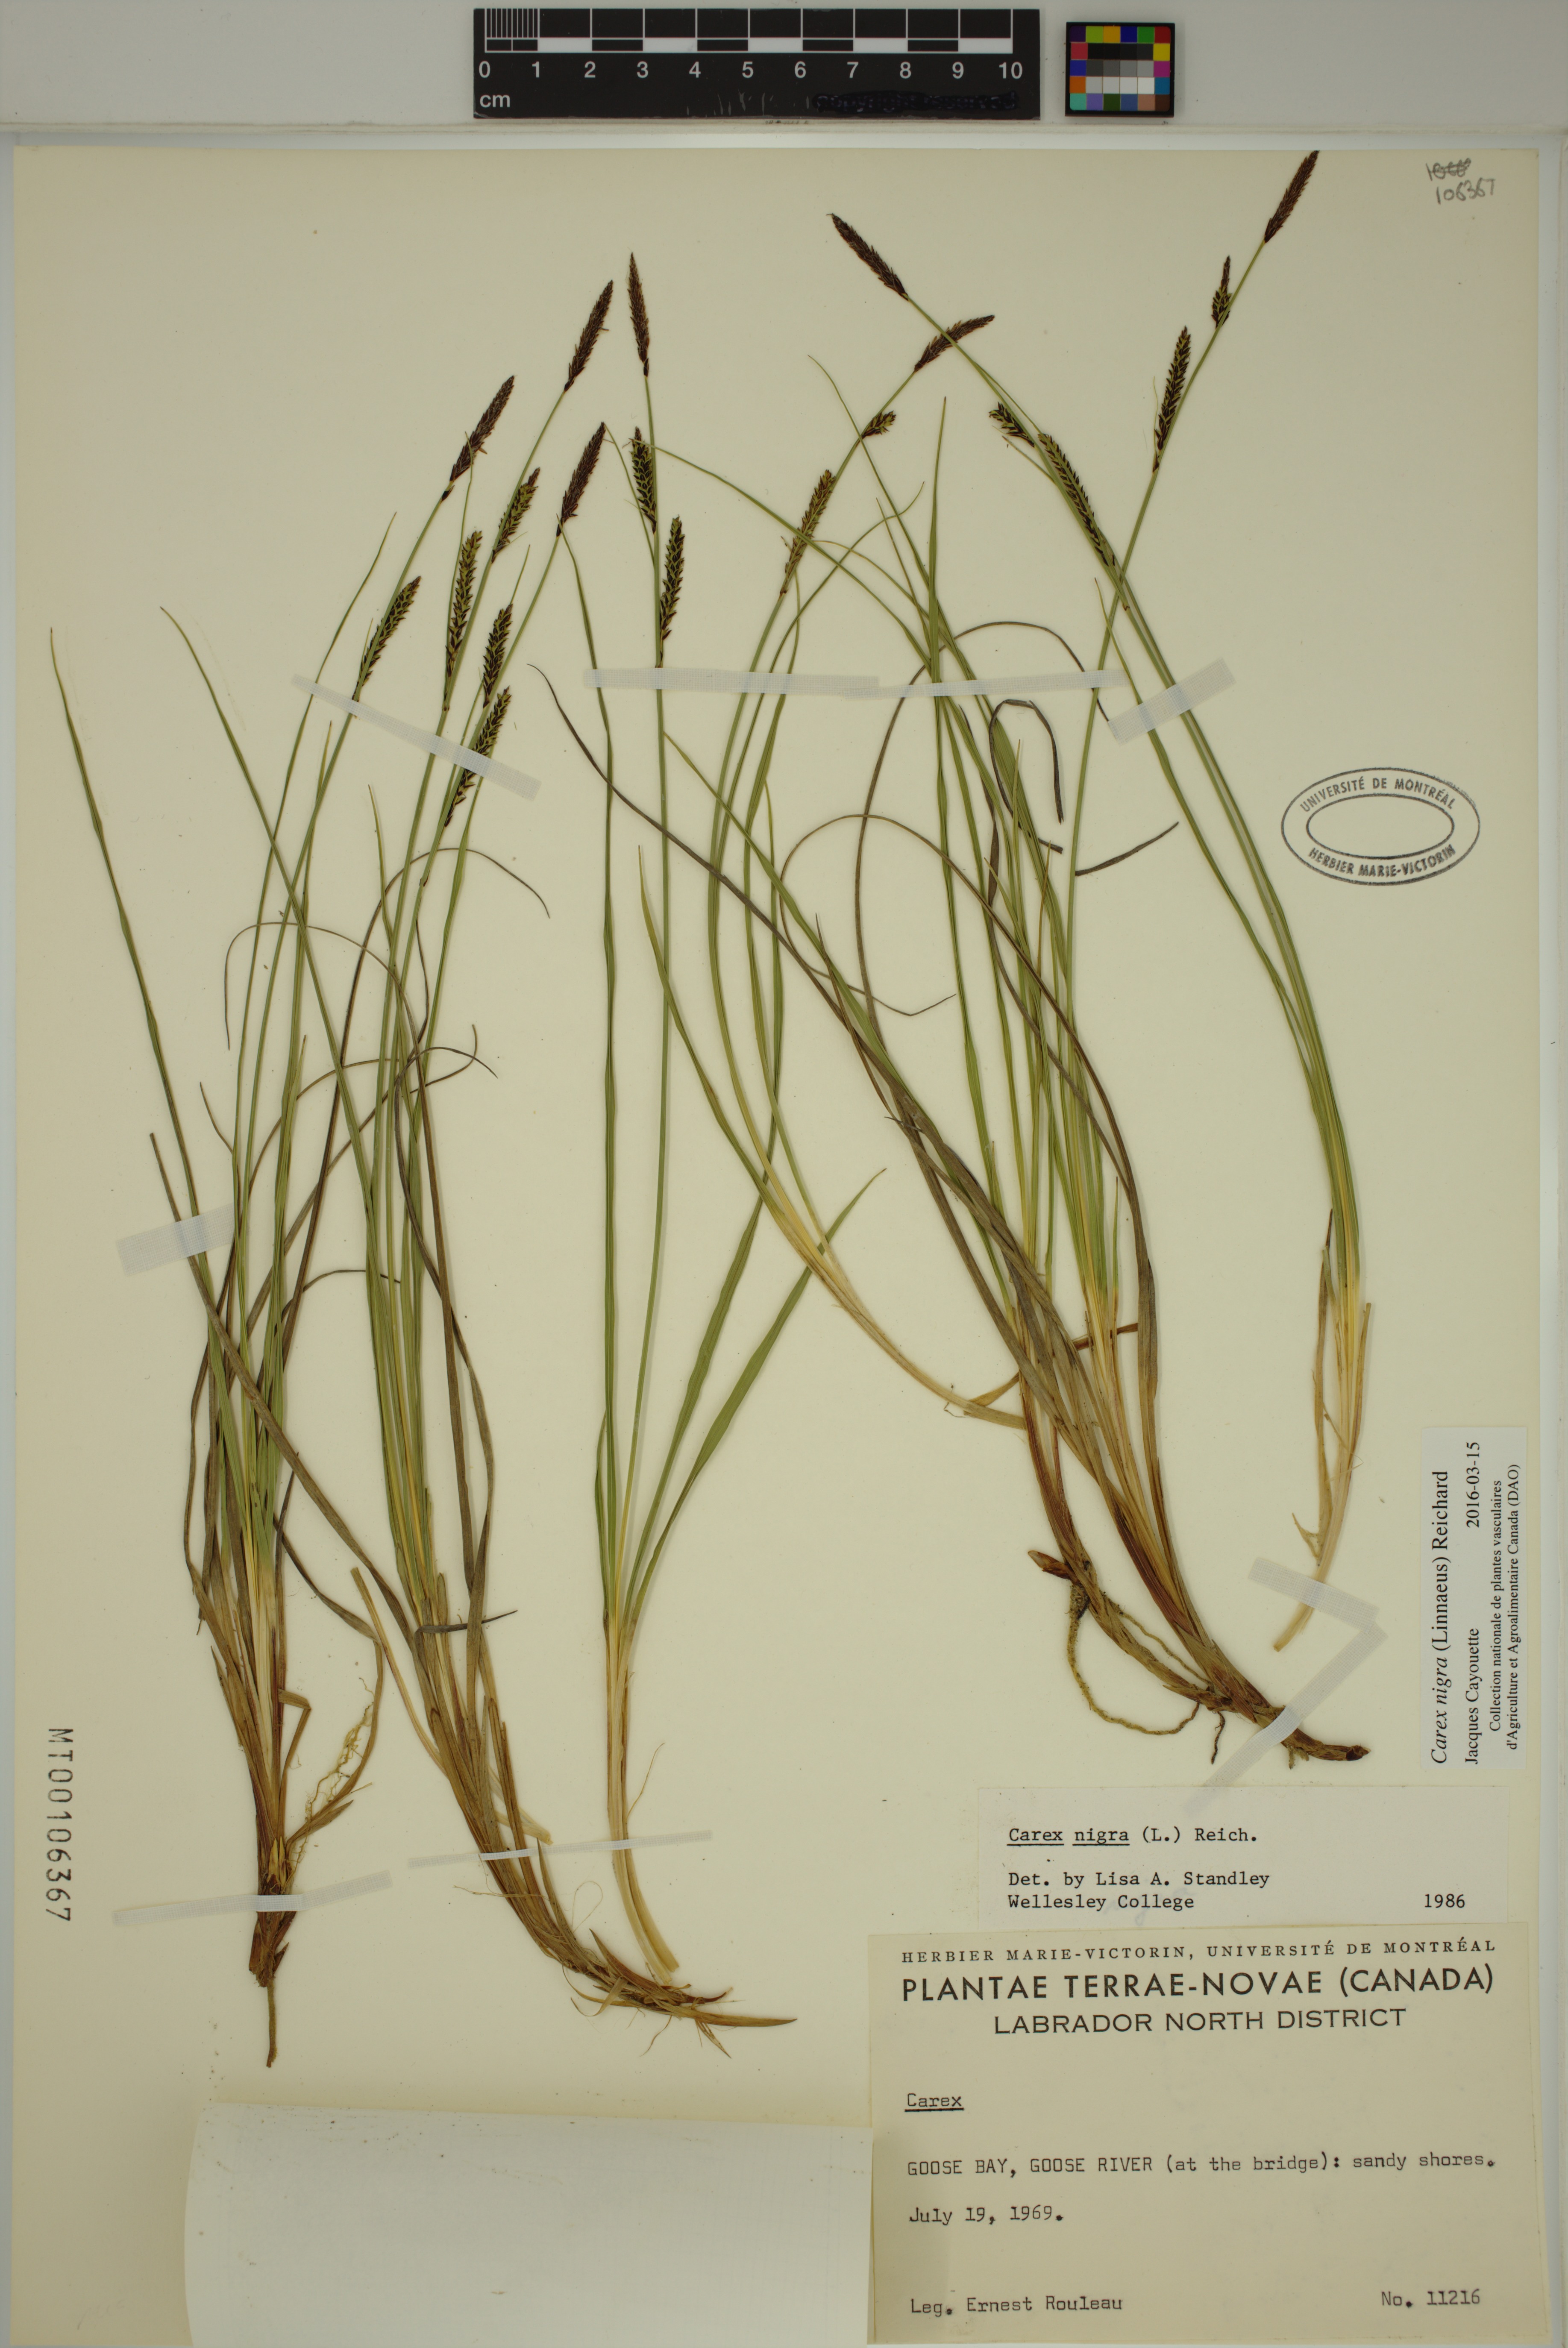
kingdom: Plantae
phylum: Tracheophyta
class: Liliopsida
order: Poales
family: Cyperaceae
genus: Carex
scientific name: Carex nigra
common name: Common sedge
